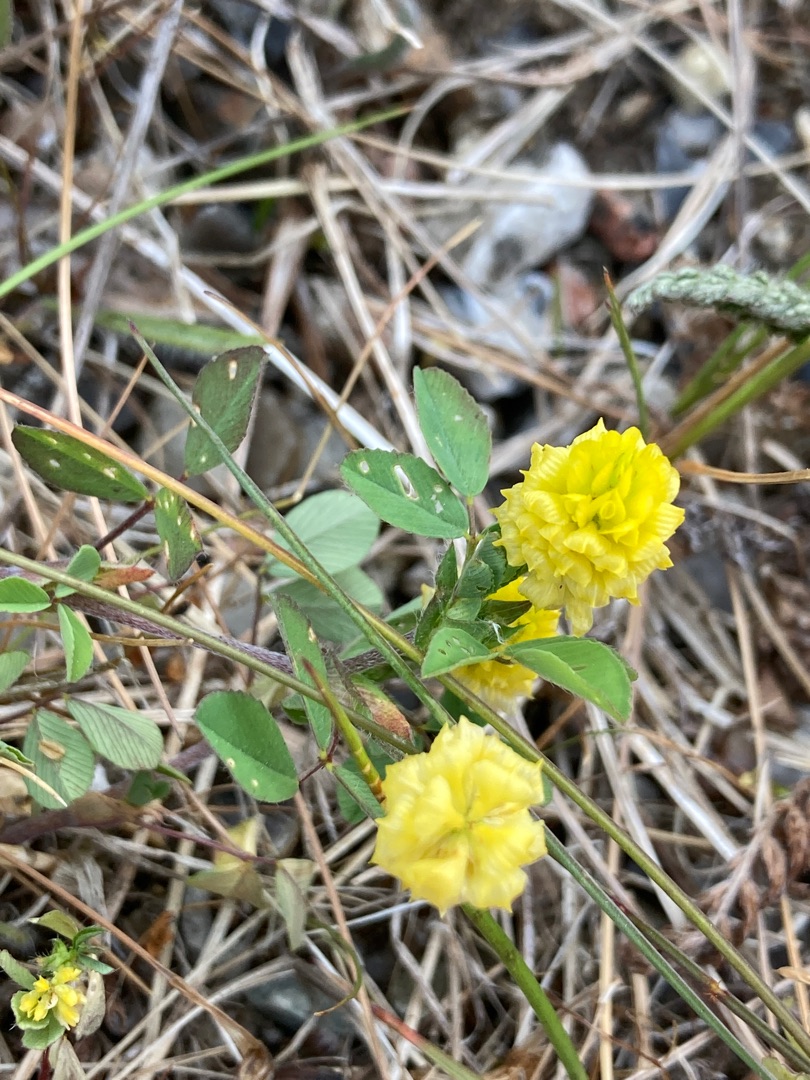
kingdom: Plantae
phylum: Tracheophyta
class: Magnoliopsida
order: Fabales
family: Fabaceae
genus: Trifolium
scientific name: Trifolium campestre
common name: Gul kløver
